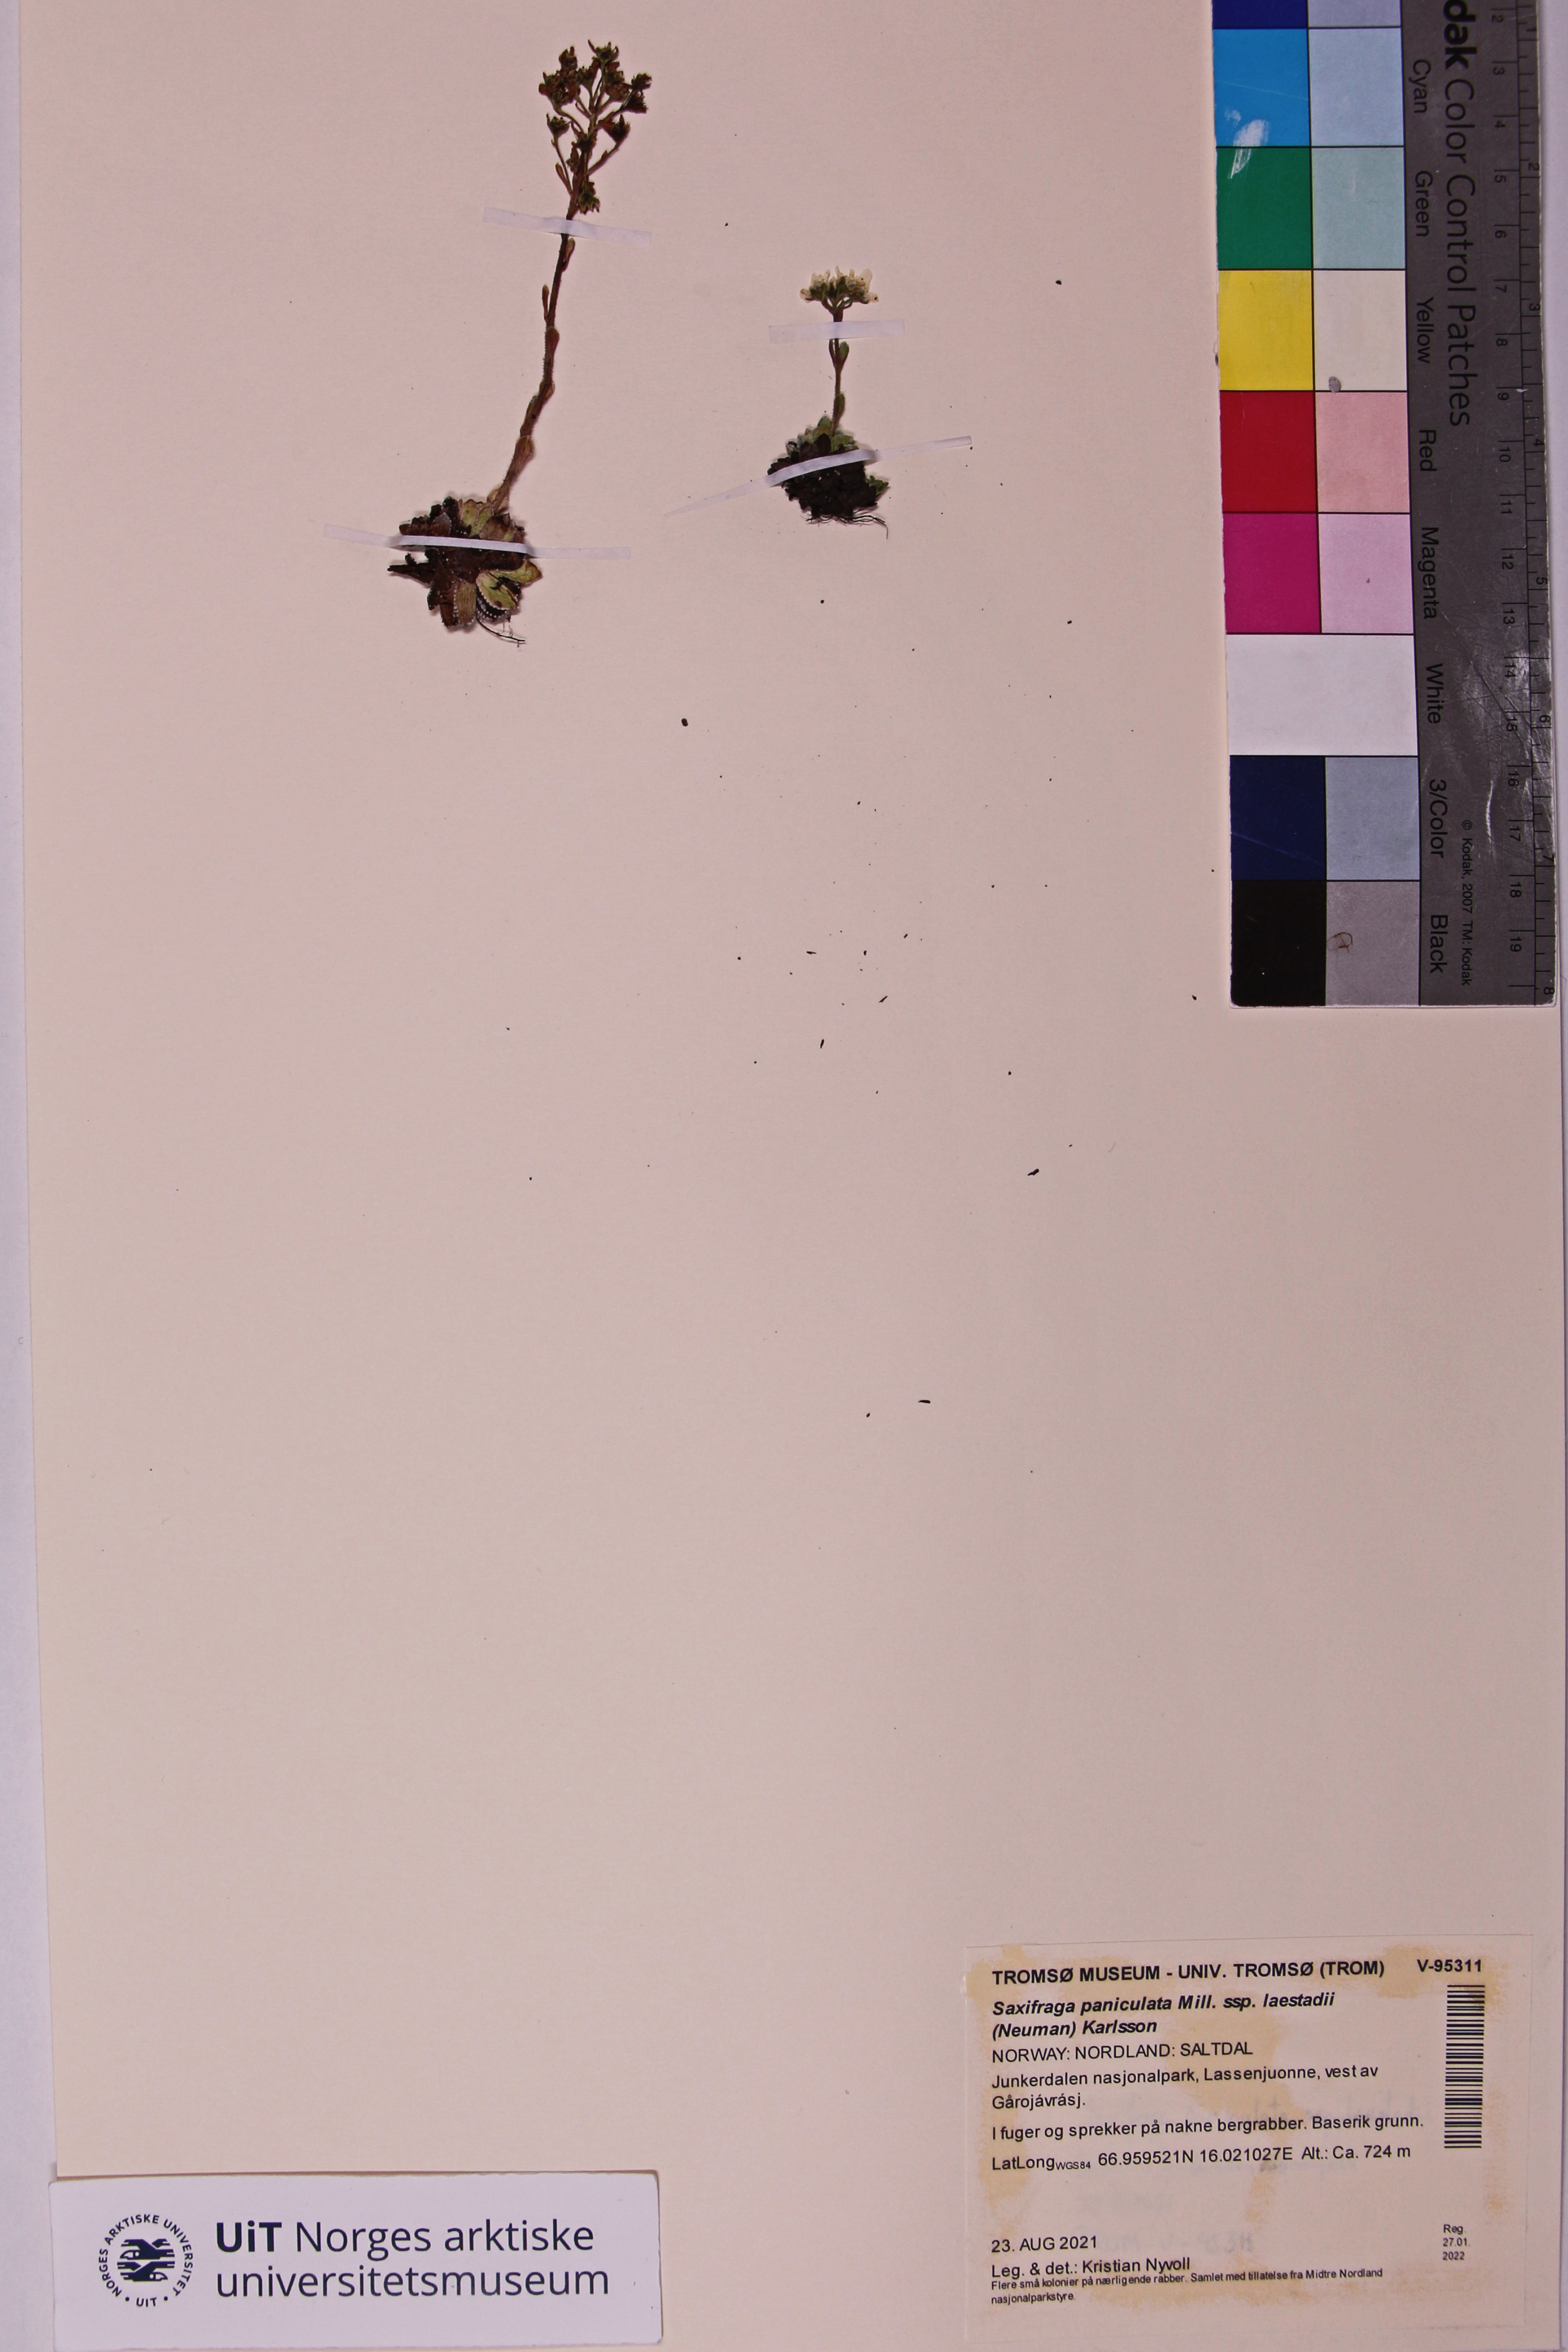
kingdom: Plantae
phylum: Tracheophyta
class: Magnoliopsida
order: Saxifragales
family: Saxifragaceae
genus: Saxifraga
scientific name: Saxifraga paniculata
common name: Livelong saxifrage
